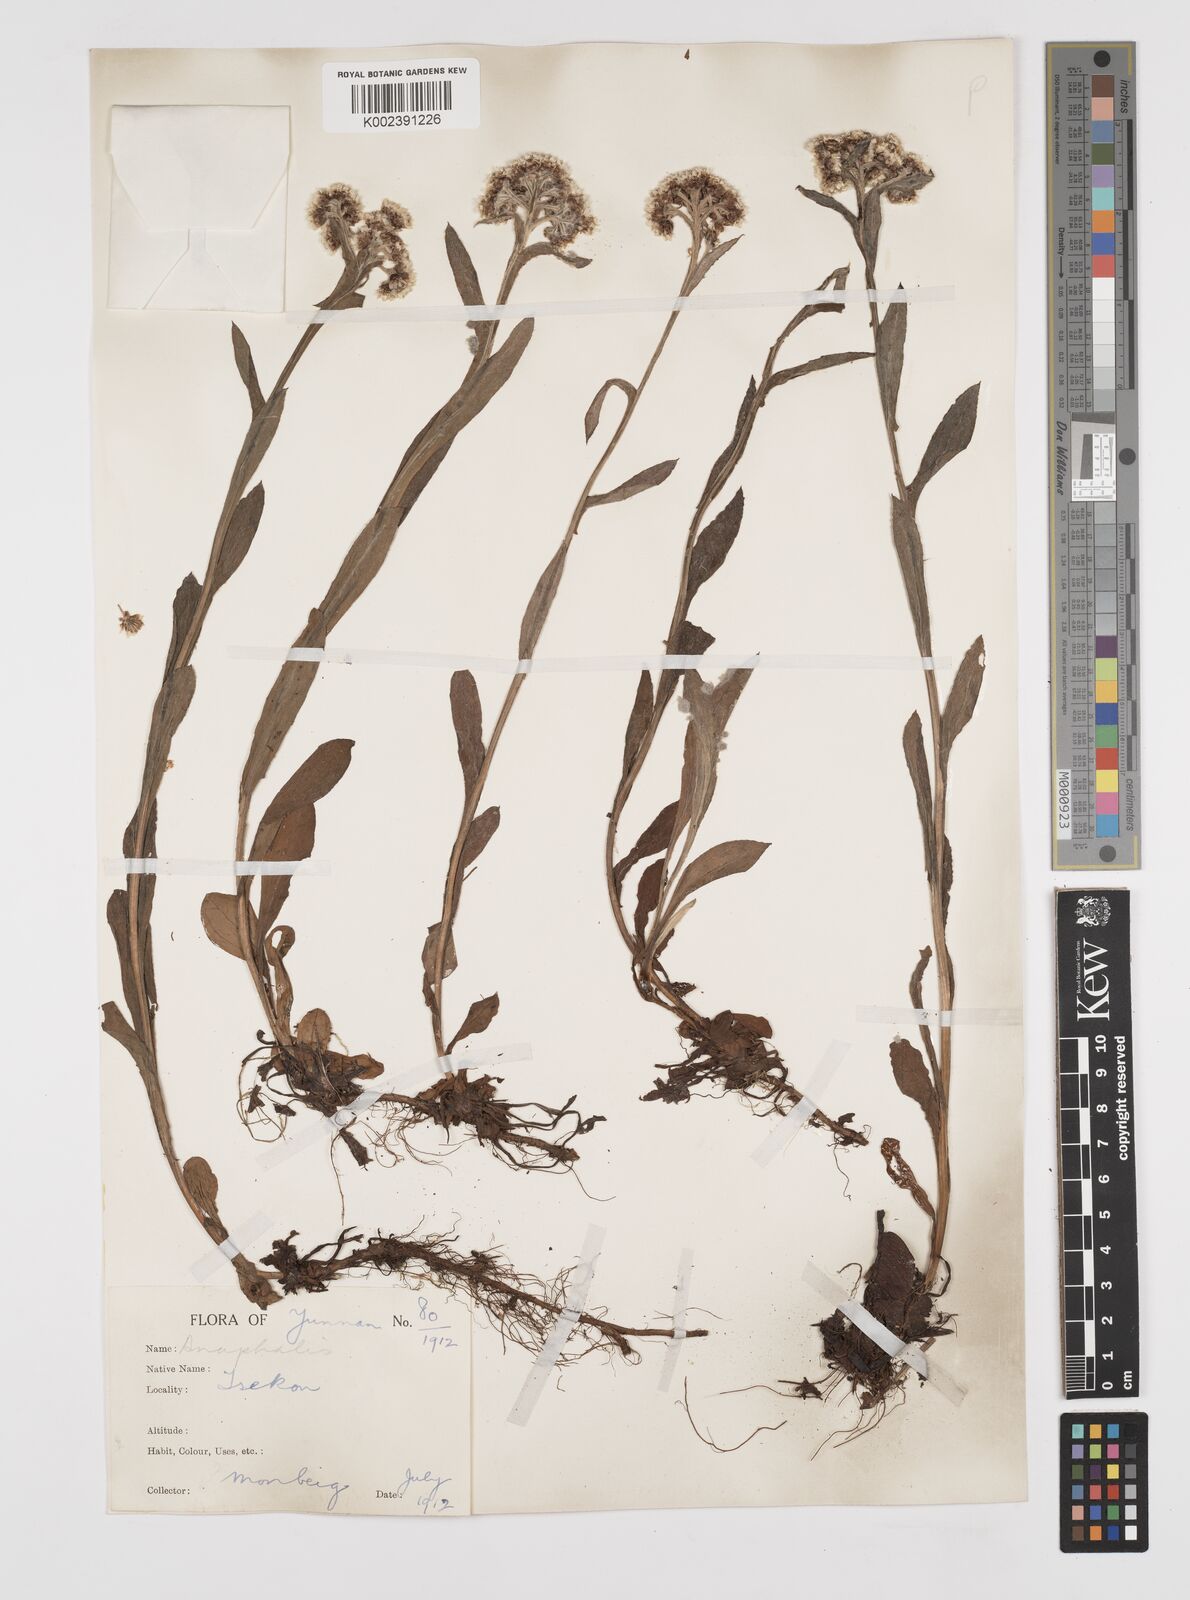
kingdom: Plantae
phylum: Tracheophyta
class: Magnoliopsida
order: Asterales
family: Asteraceae
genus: Anaphalis
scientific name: Anaphalis delavayi
